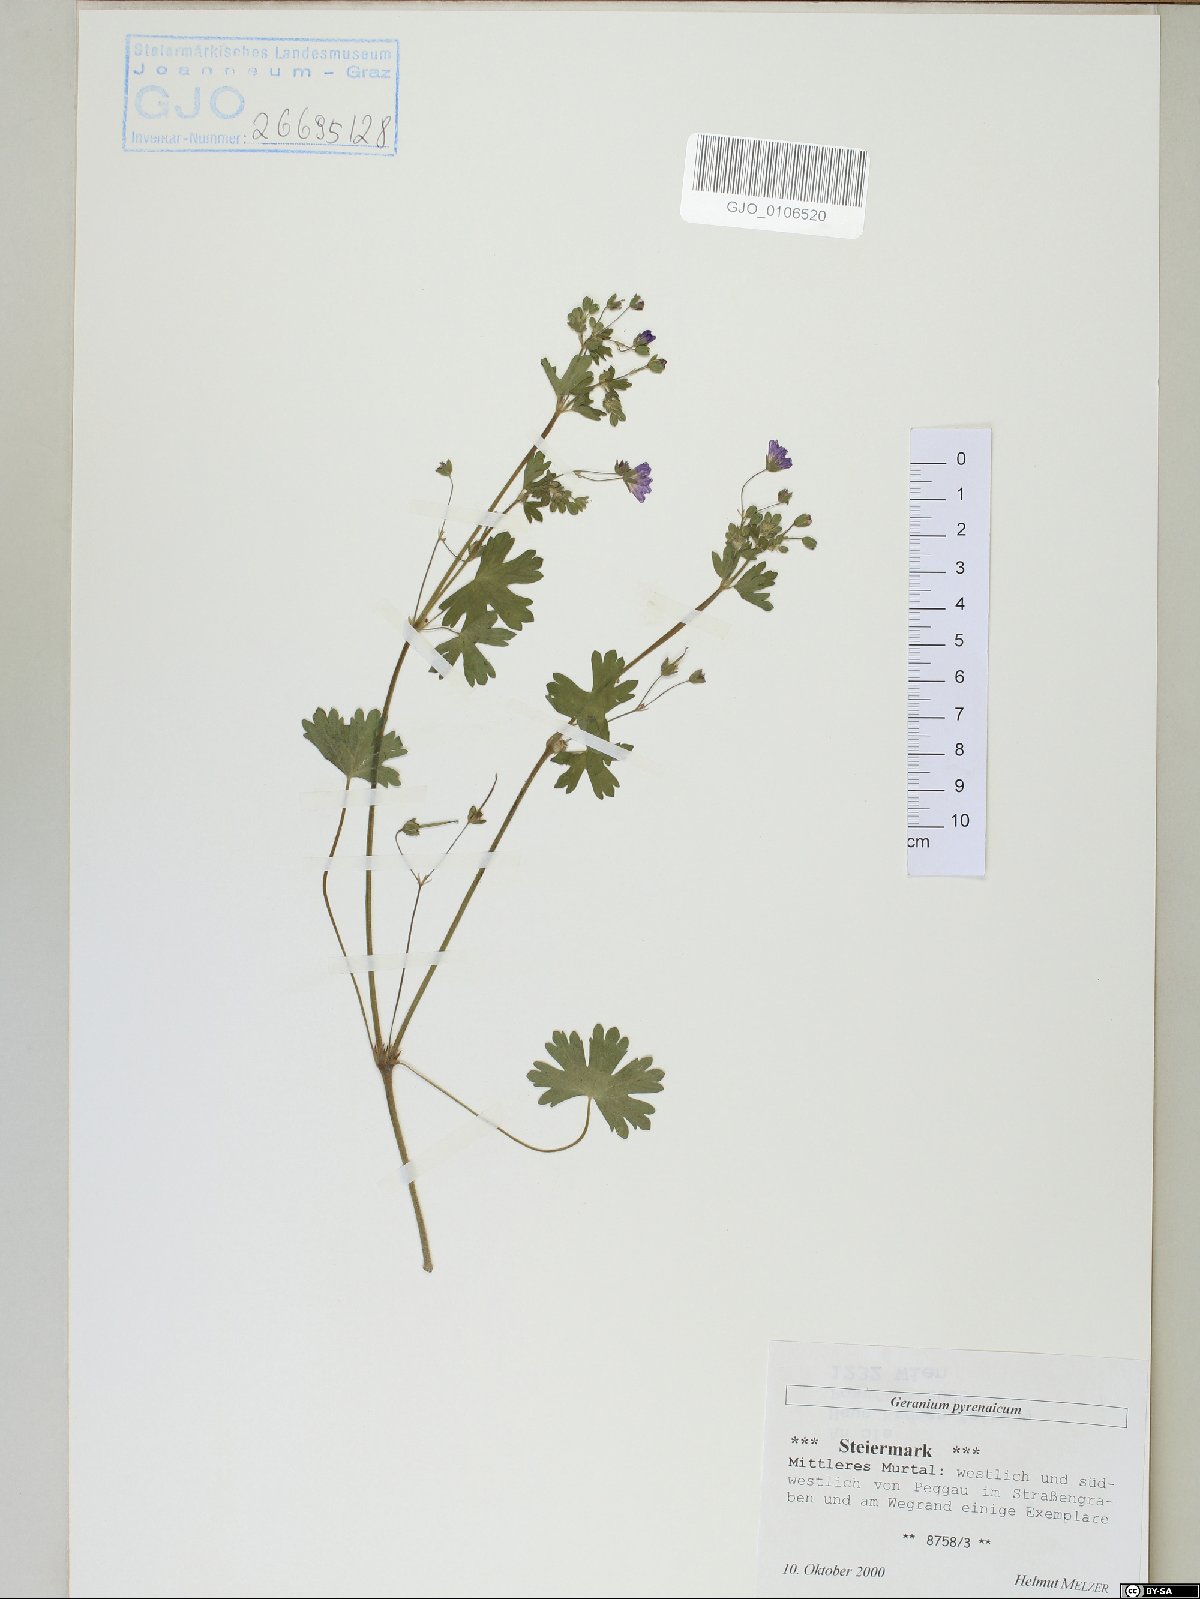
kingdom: Plantae
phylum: Tracheophyta
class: Magnoliopsida
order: Geraniales
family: Geraniaceae
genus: Geranium
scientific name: Geranium pyrenaicum
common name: Hedgerow crane's-bill
